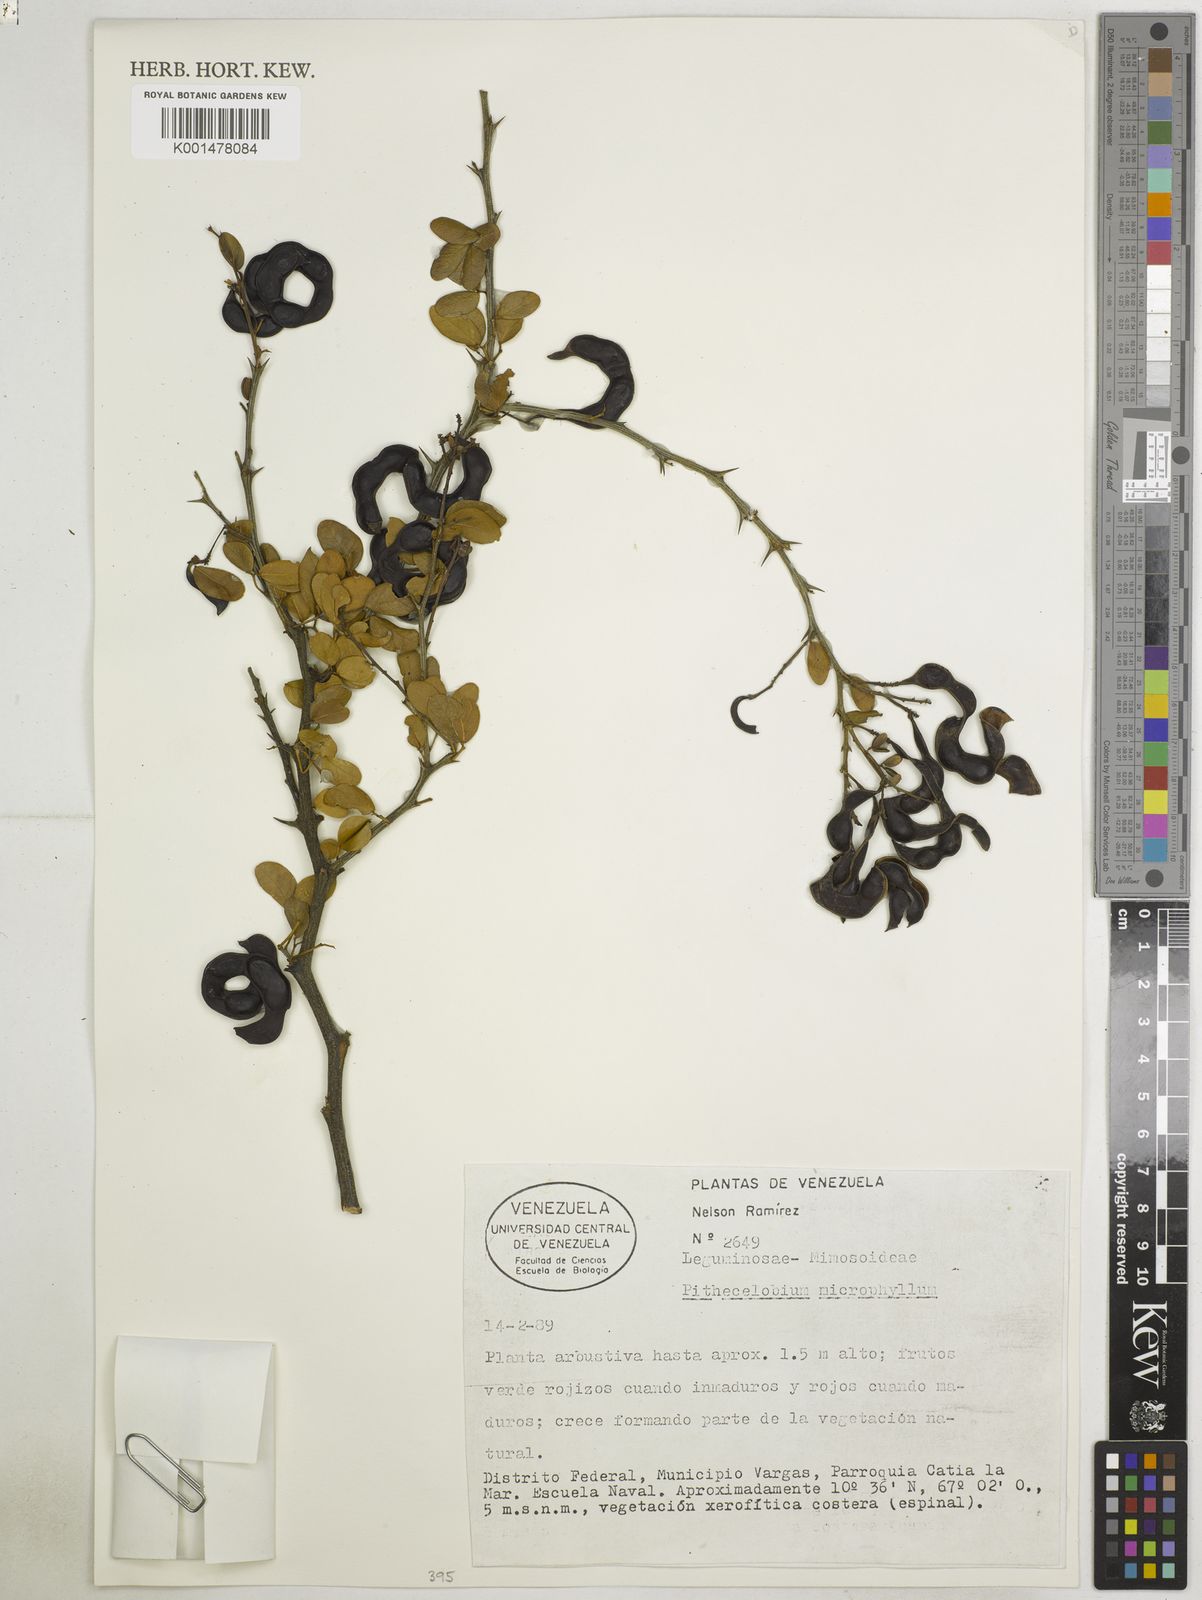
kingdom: Plantae
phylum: Tracheophyta
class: Magnoliopsida
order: Fabales
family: Fabaceae
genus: Pithecellobium
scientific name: Pithecellobium unguis-cati
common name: Cat's-claw
